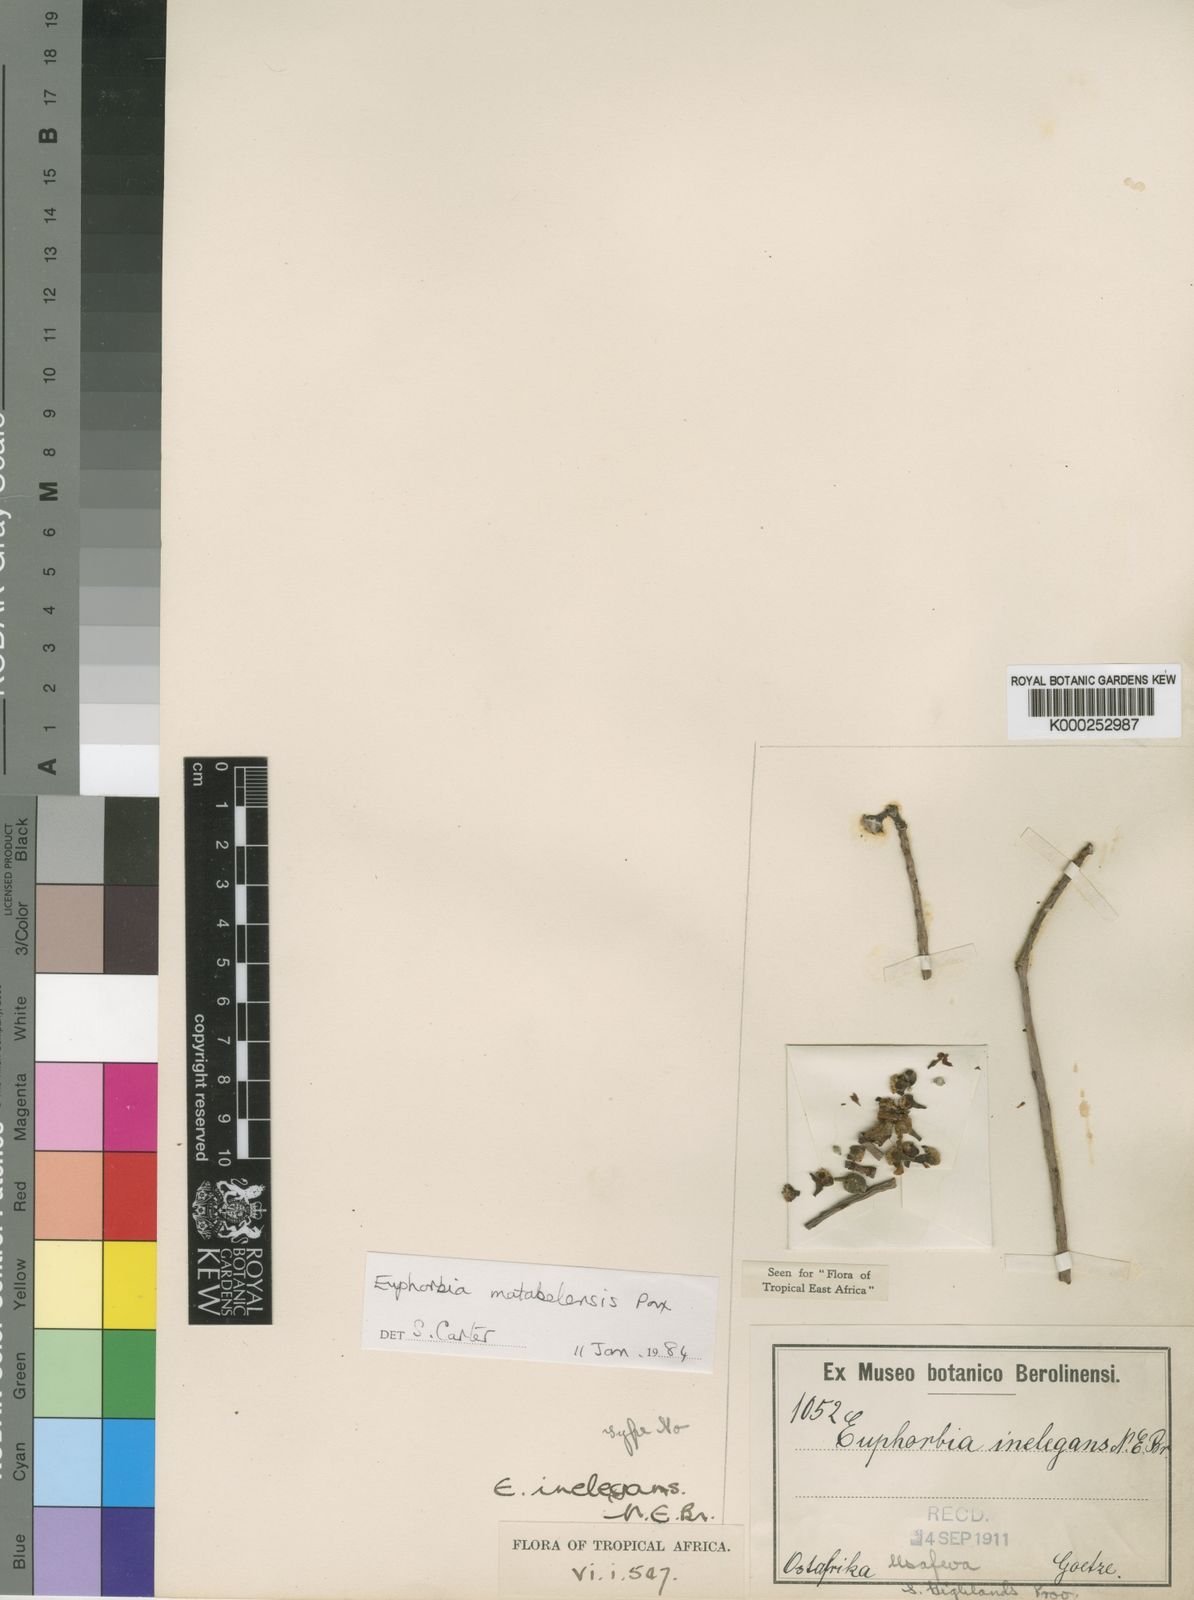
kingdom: Plantae
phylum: Tracheophyta
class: Magnoliopsida
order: Malpighiales
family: Euphorbiaceae
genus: Euphorbia
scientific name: Euphorbia matabelensis
